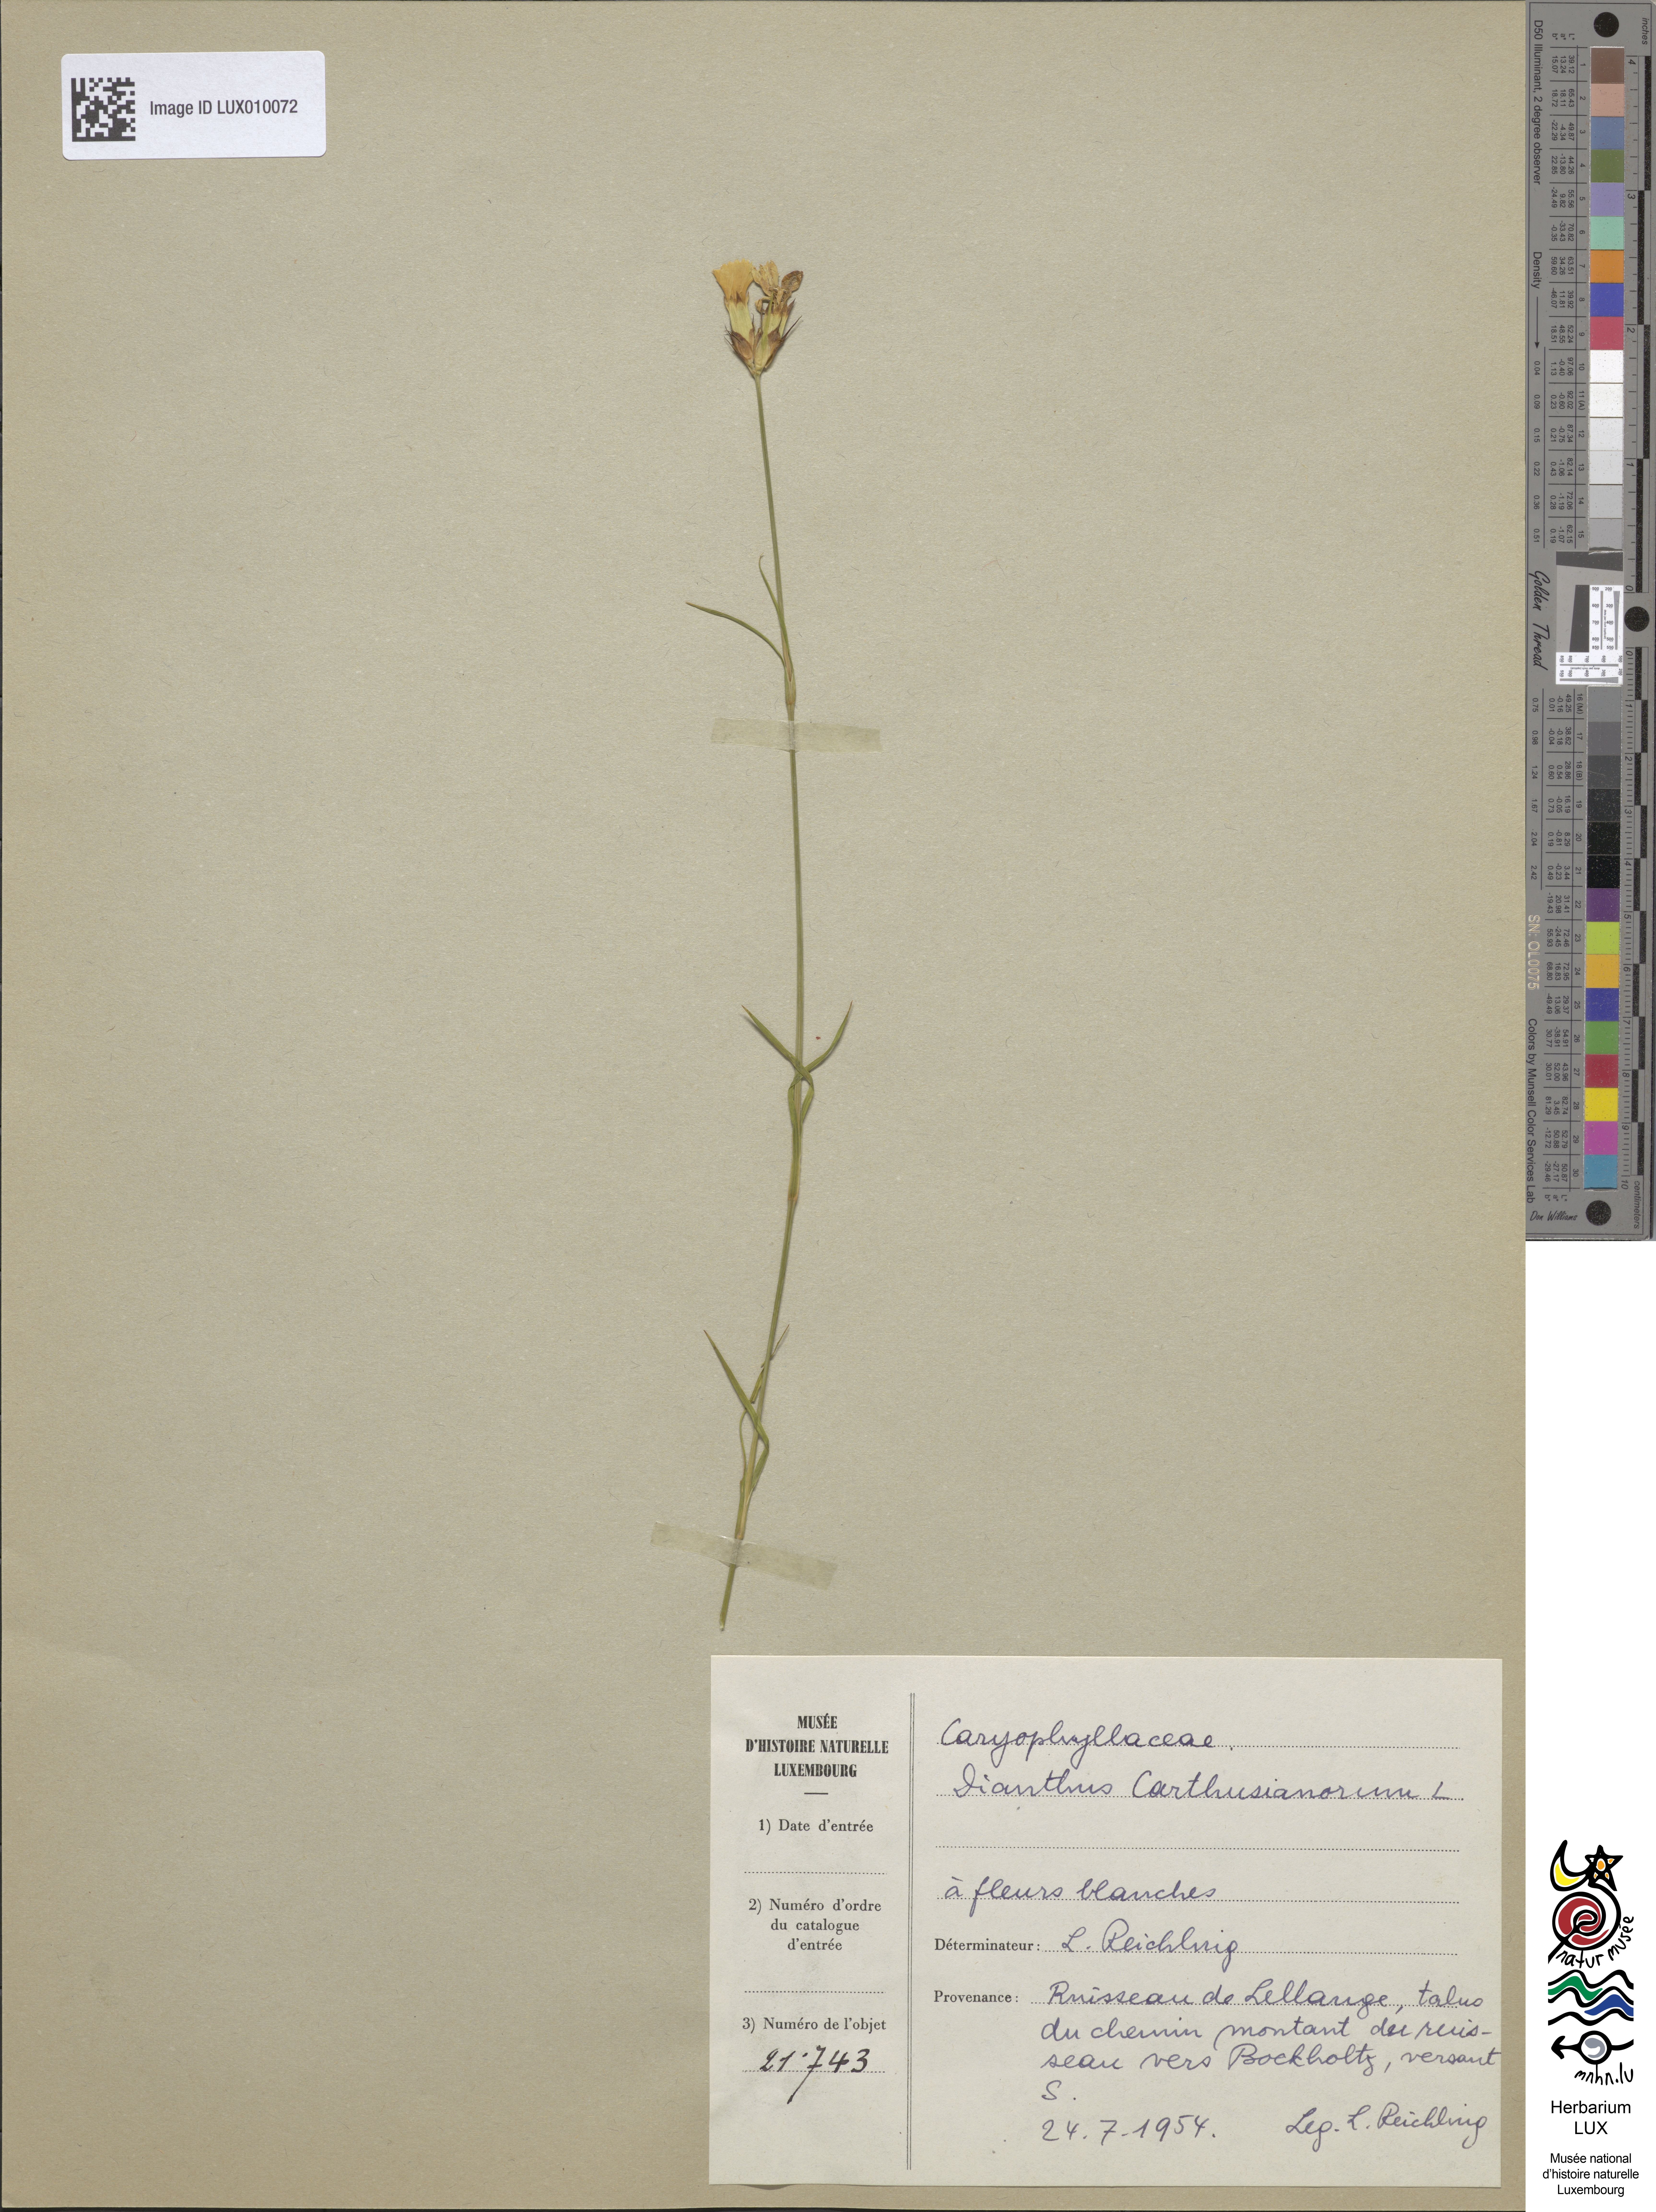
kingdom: Plantae
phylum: Tracheophyta
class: Magnoliopsida
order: Caryophyllales
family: Caryophyllaceae
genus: Dianthus
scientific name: Dianthus carthusianorum
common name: Carthusian pink
